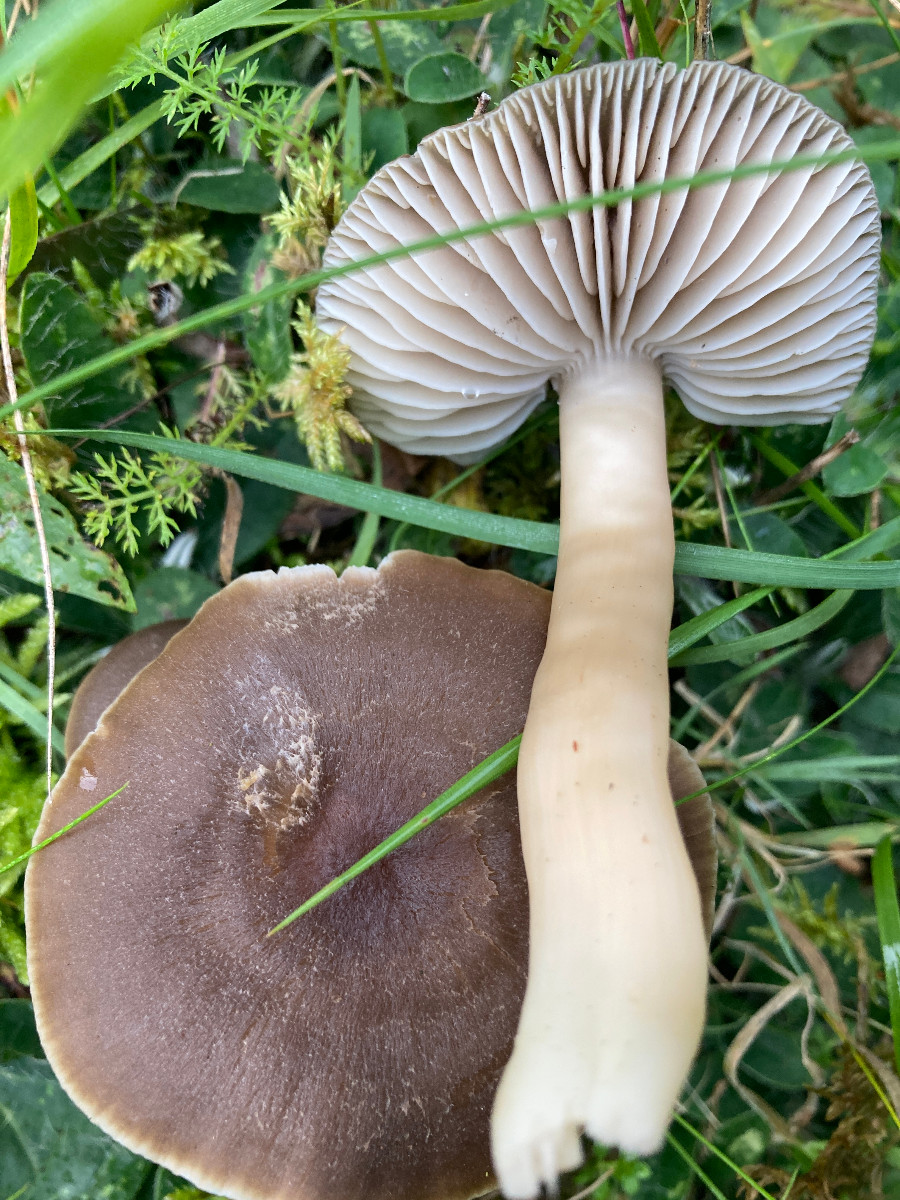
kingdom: Fungi
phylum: Basidiomycota
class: Agaricomycetes
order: Agaricales
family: Hygrophoraceae
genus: Neohygrocybe
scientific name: Neohygrocybe nitrata
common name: stinkende vokshat
